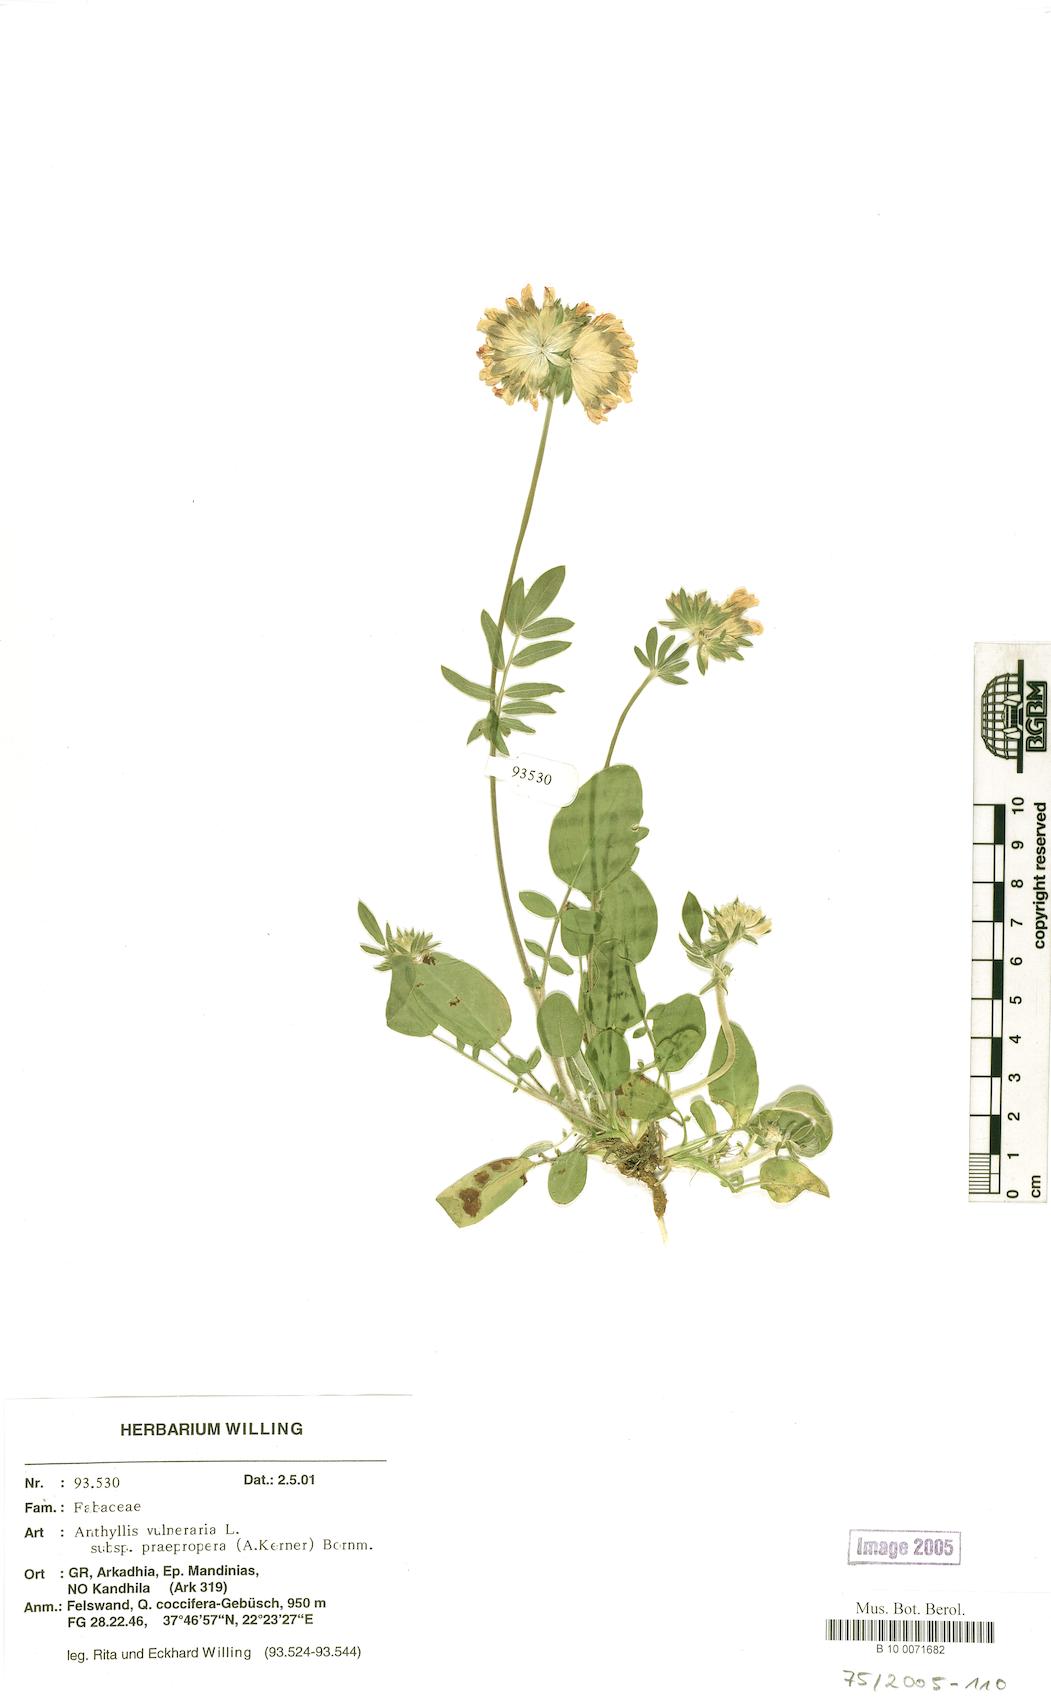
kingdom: Plantae
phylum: Tracheophyta
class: Magnoliopsida
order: Fabales
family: Fabaceae
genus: Anthyllis
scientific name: Anthyllis vulneraria
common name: Kidney vetch
